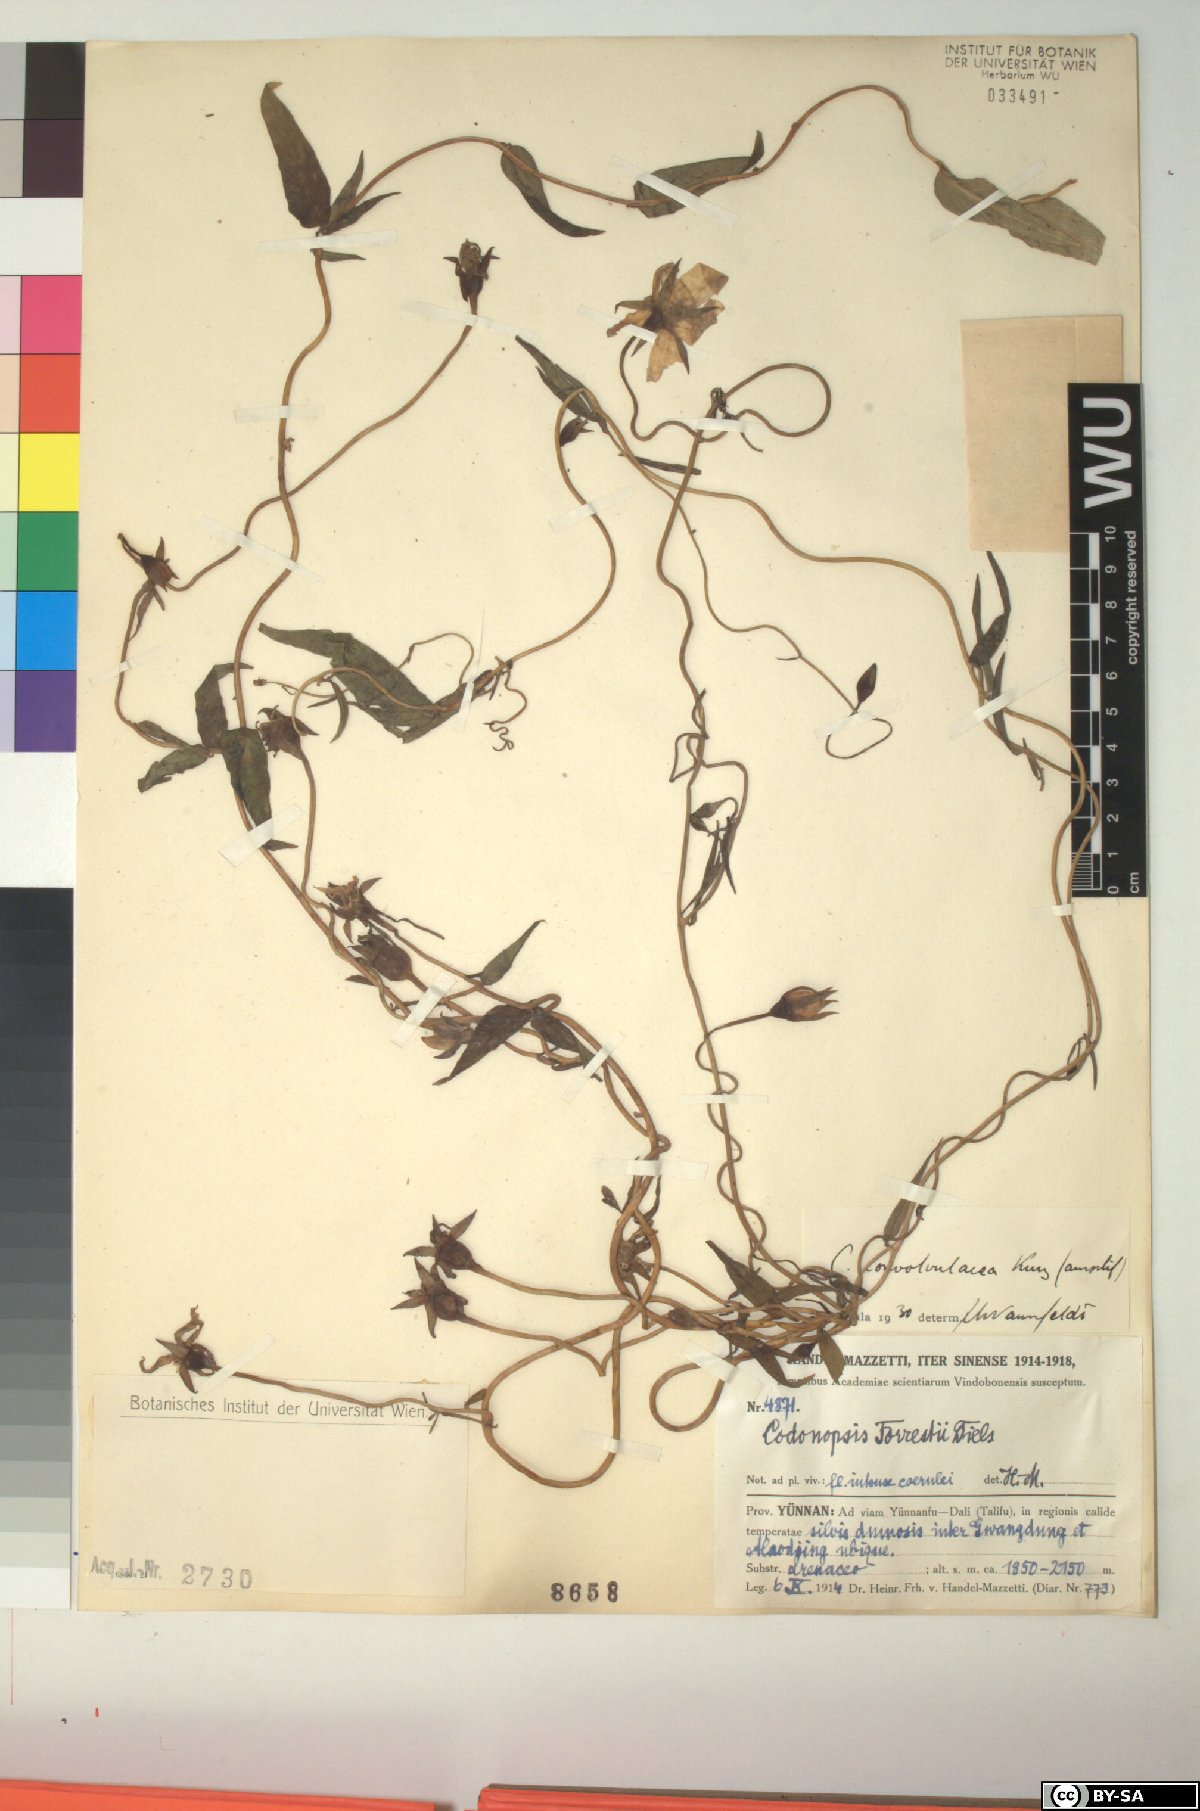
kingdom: Plantae
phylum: Tracheophyta
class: Magnoliopsida
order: Asterales
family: Campanulaceae
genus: Pseudocodon
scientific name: Pseudocodon convolvulaceus
